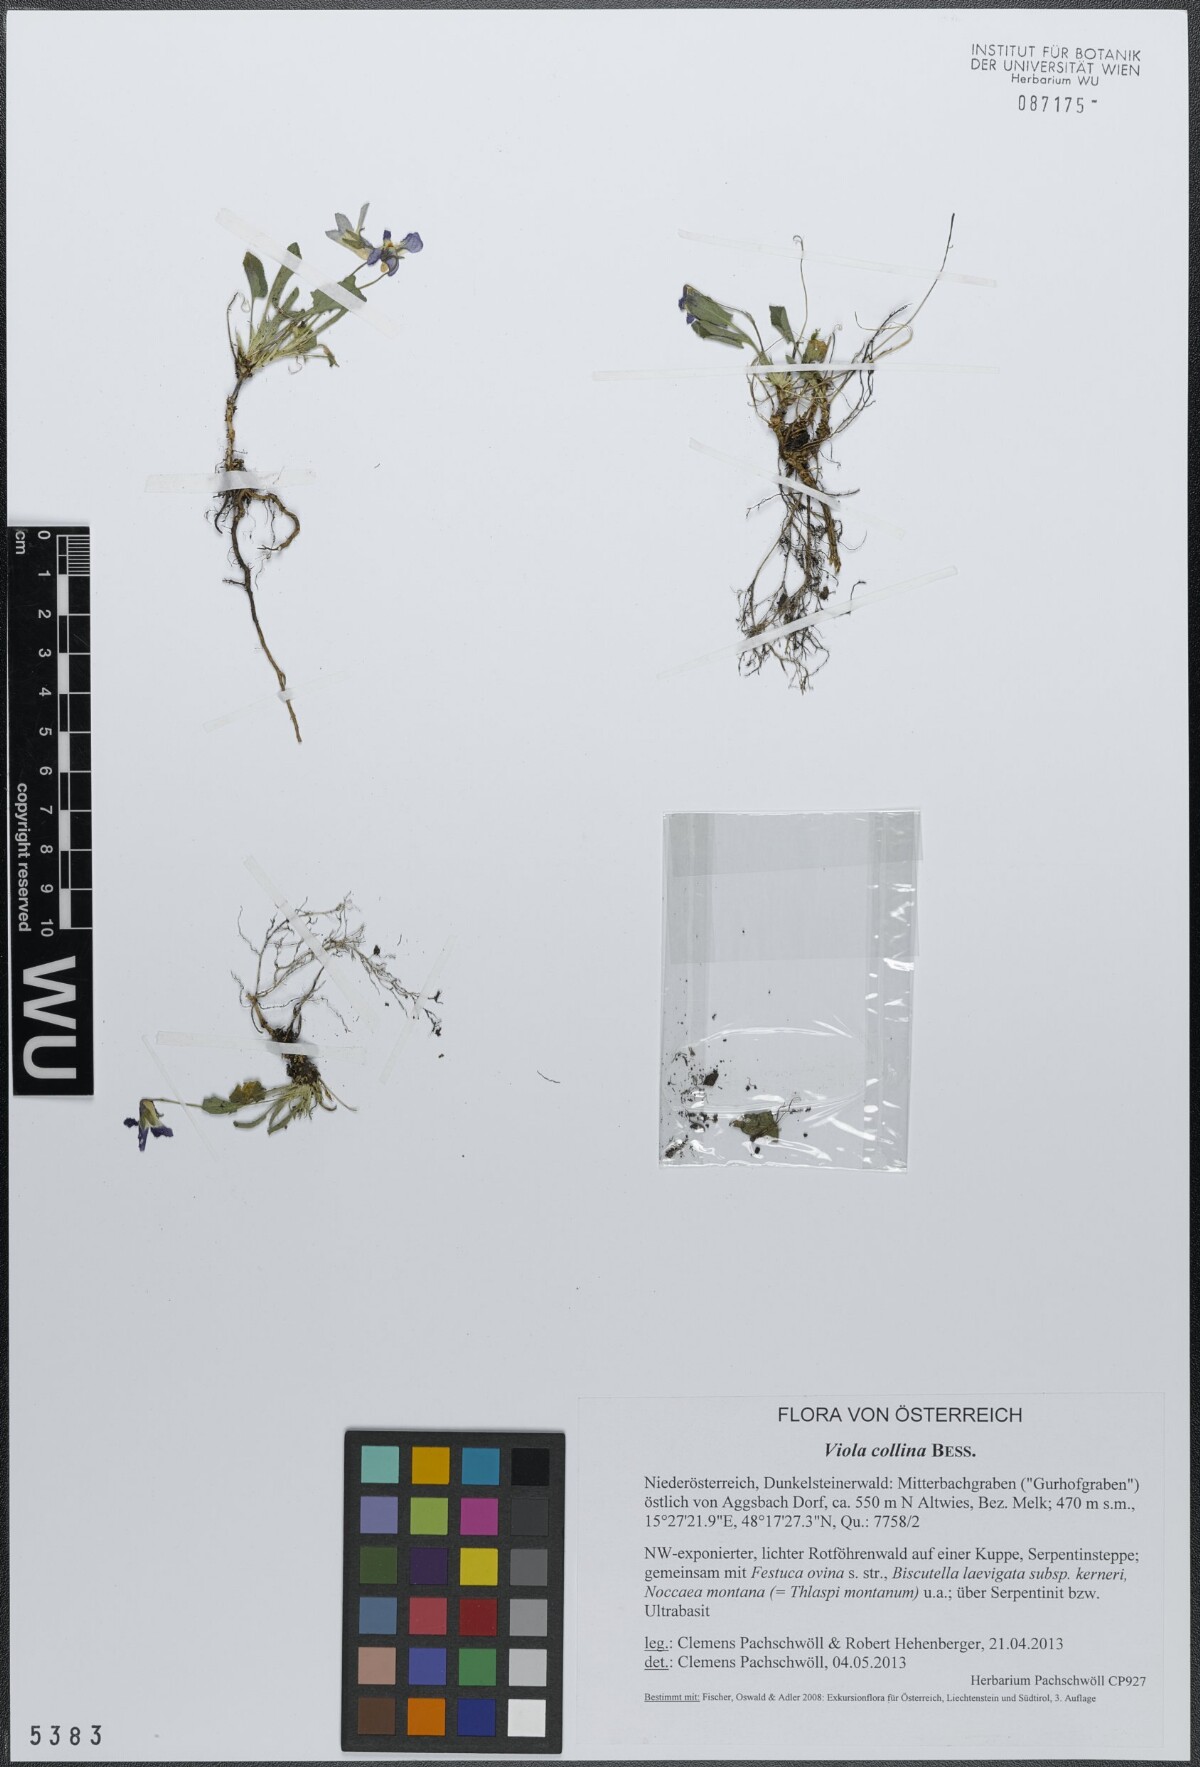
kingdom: Plantae
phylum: Tracheophyta
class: Magnoliopsida
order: Malpighiales
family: Violaceae
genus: Viola
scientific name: Viola collina
